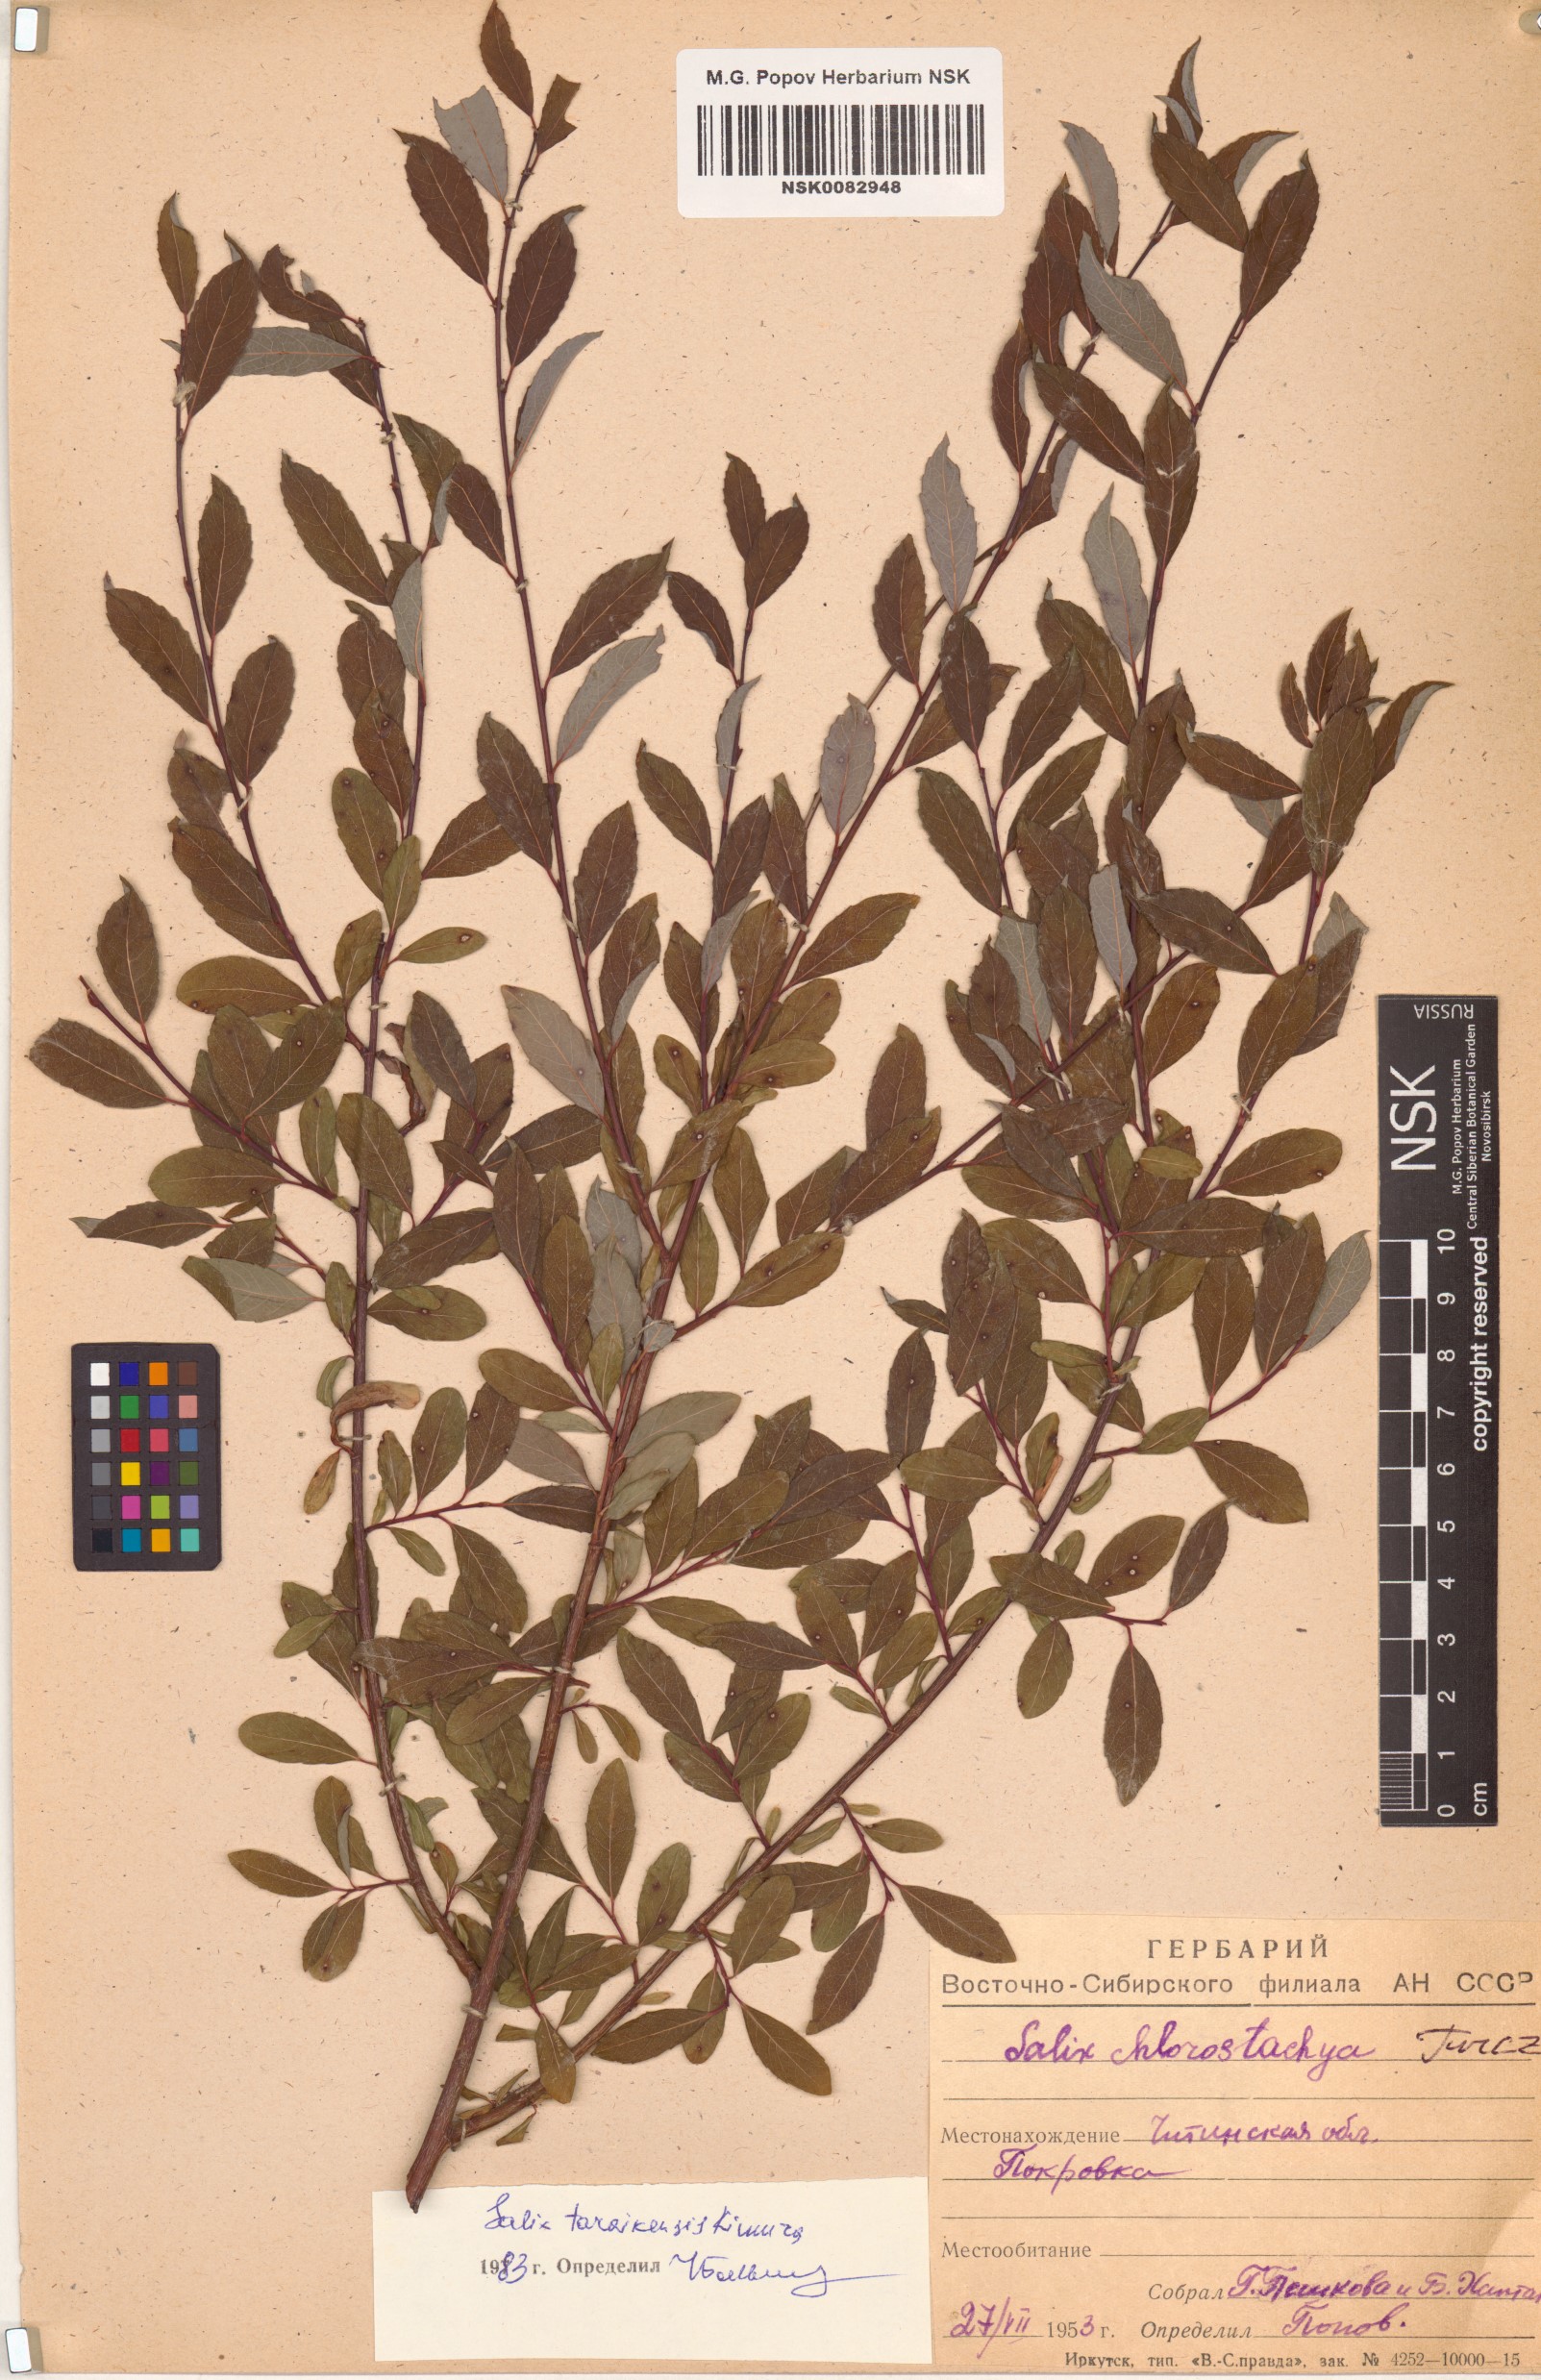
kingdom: Plantae
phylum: Tracheophyta
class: Magnoliopsida
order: Malpighiales
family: Salicaceae
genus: Salix
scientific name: Salix taraikensis
